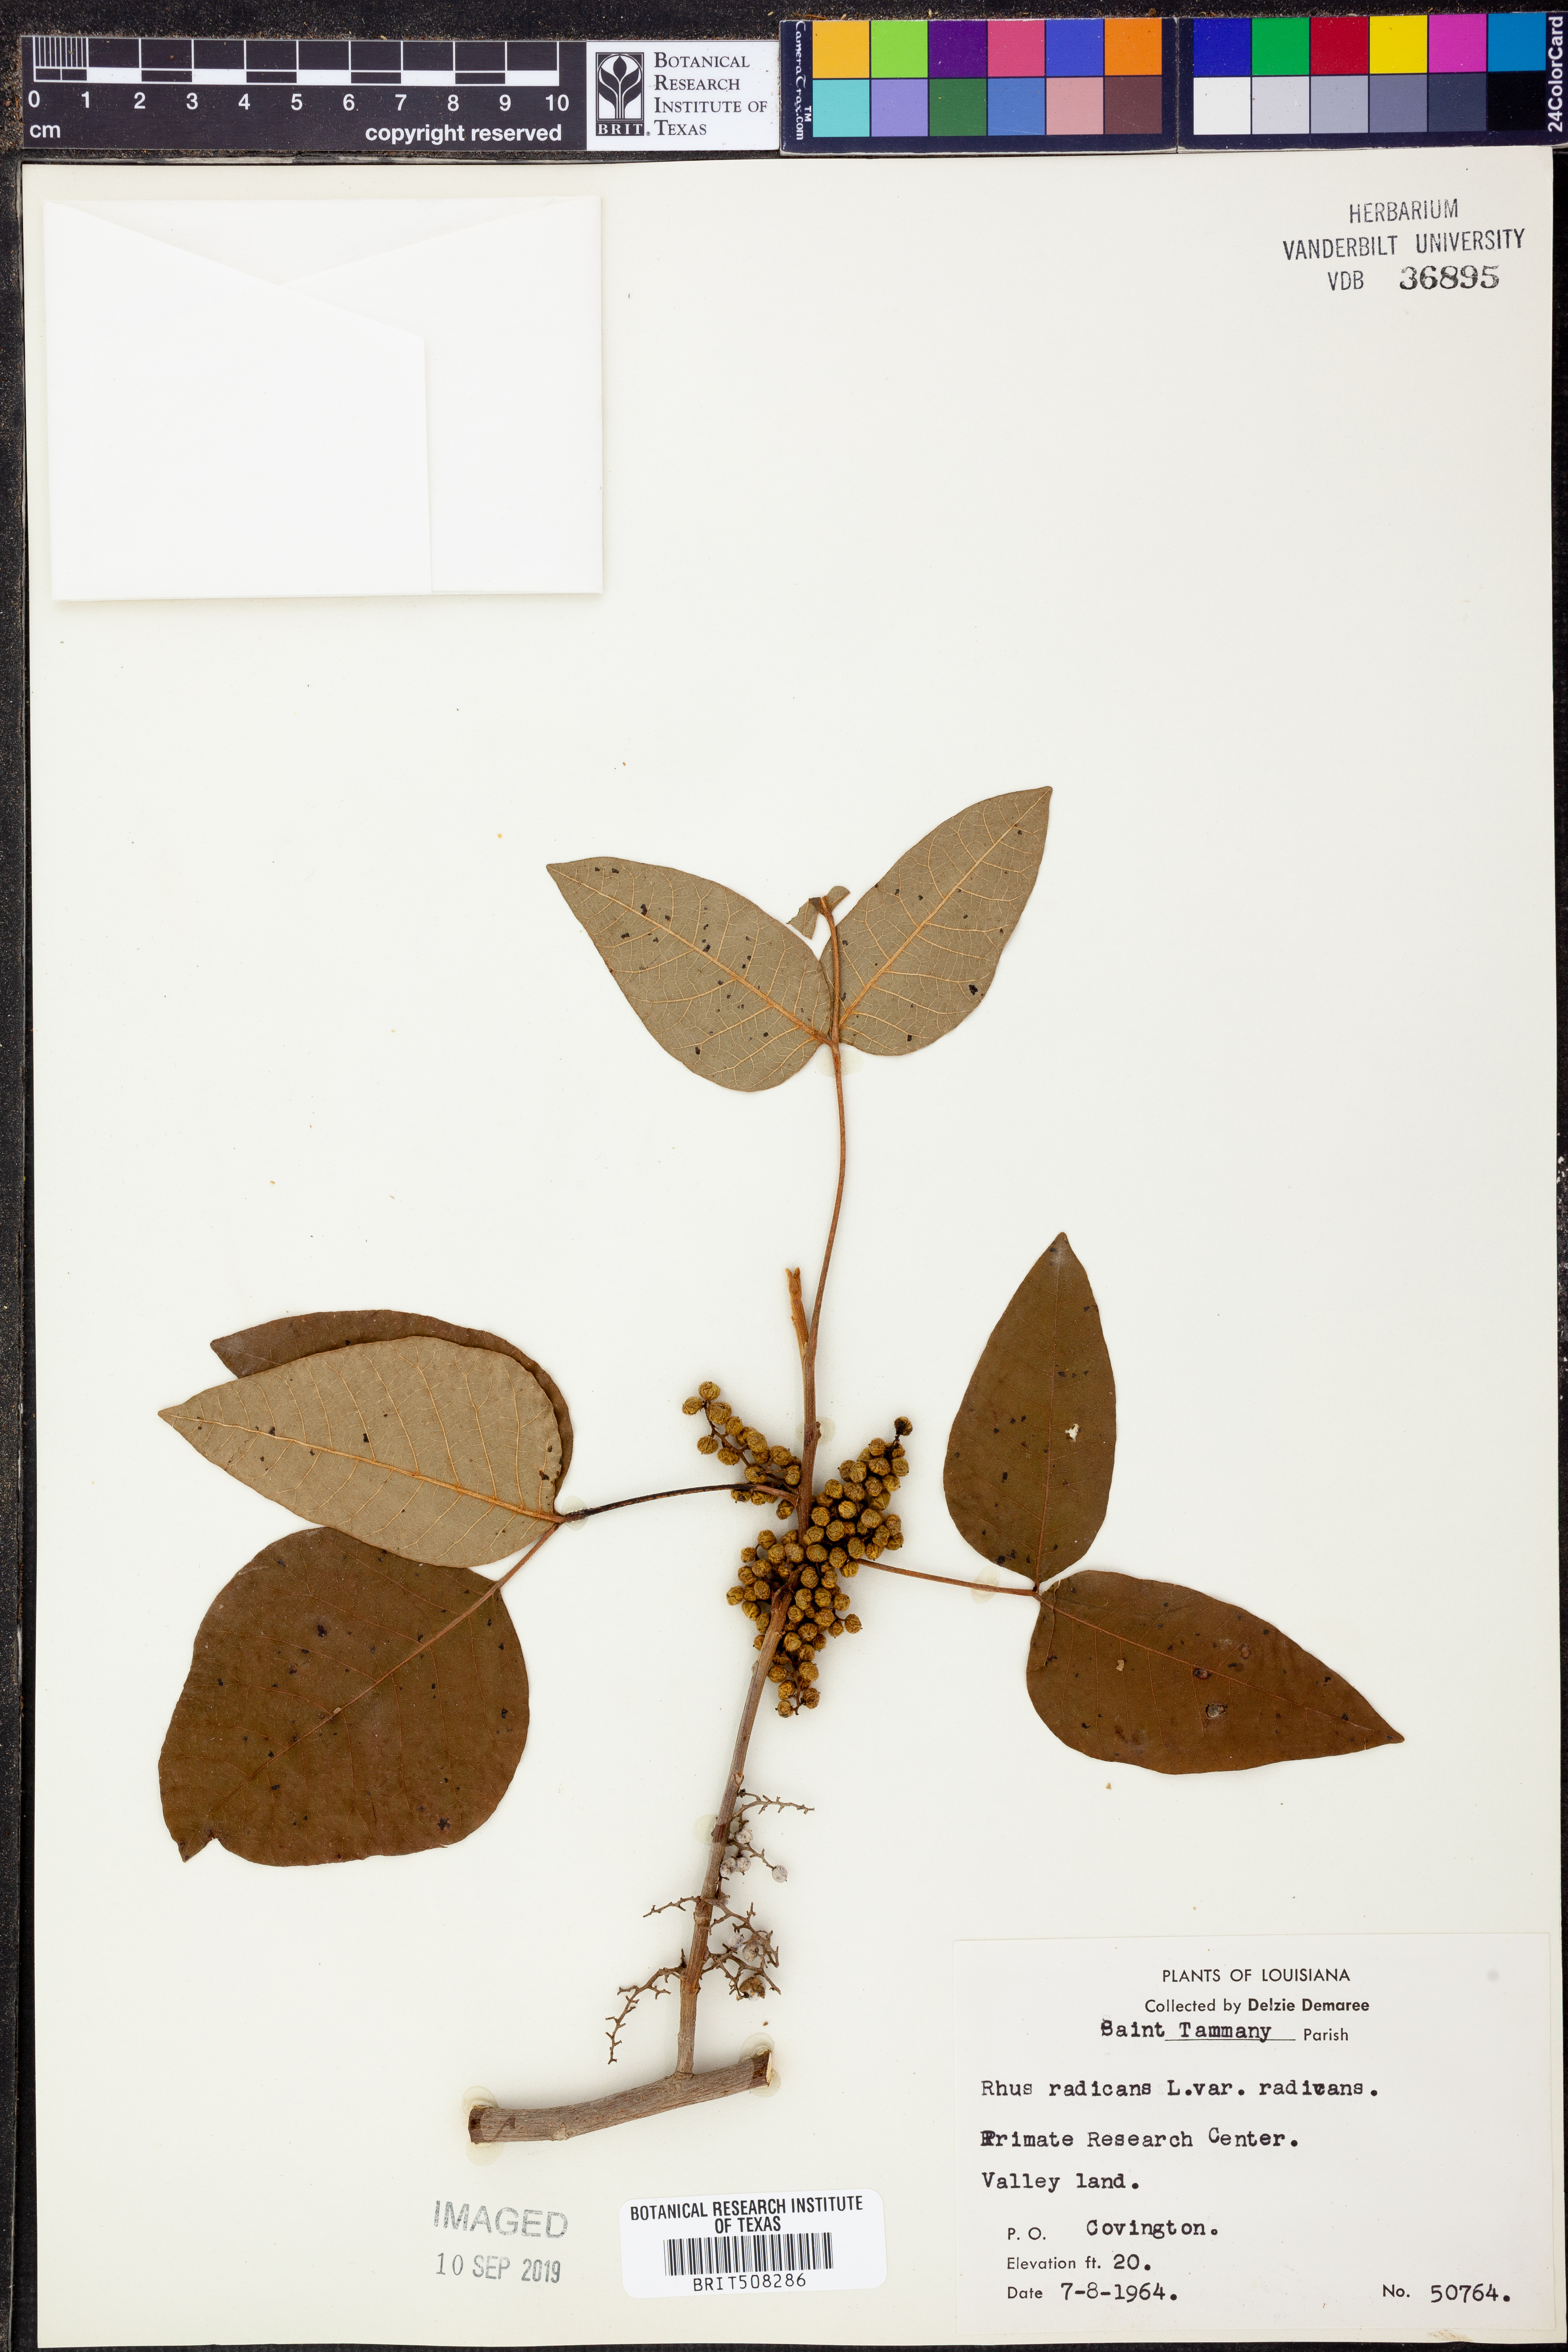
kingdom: Plantae
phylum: Tracheophyta
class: Magnoliopsida
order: Sapindales
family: Anacardiaceae
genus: Toxicodendron
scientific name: Toxicodendron radicans
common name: Poison ivy
